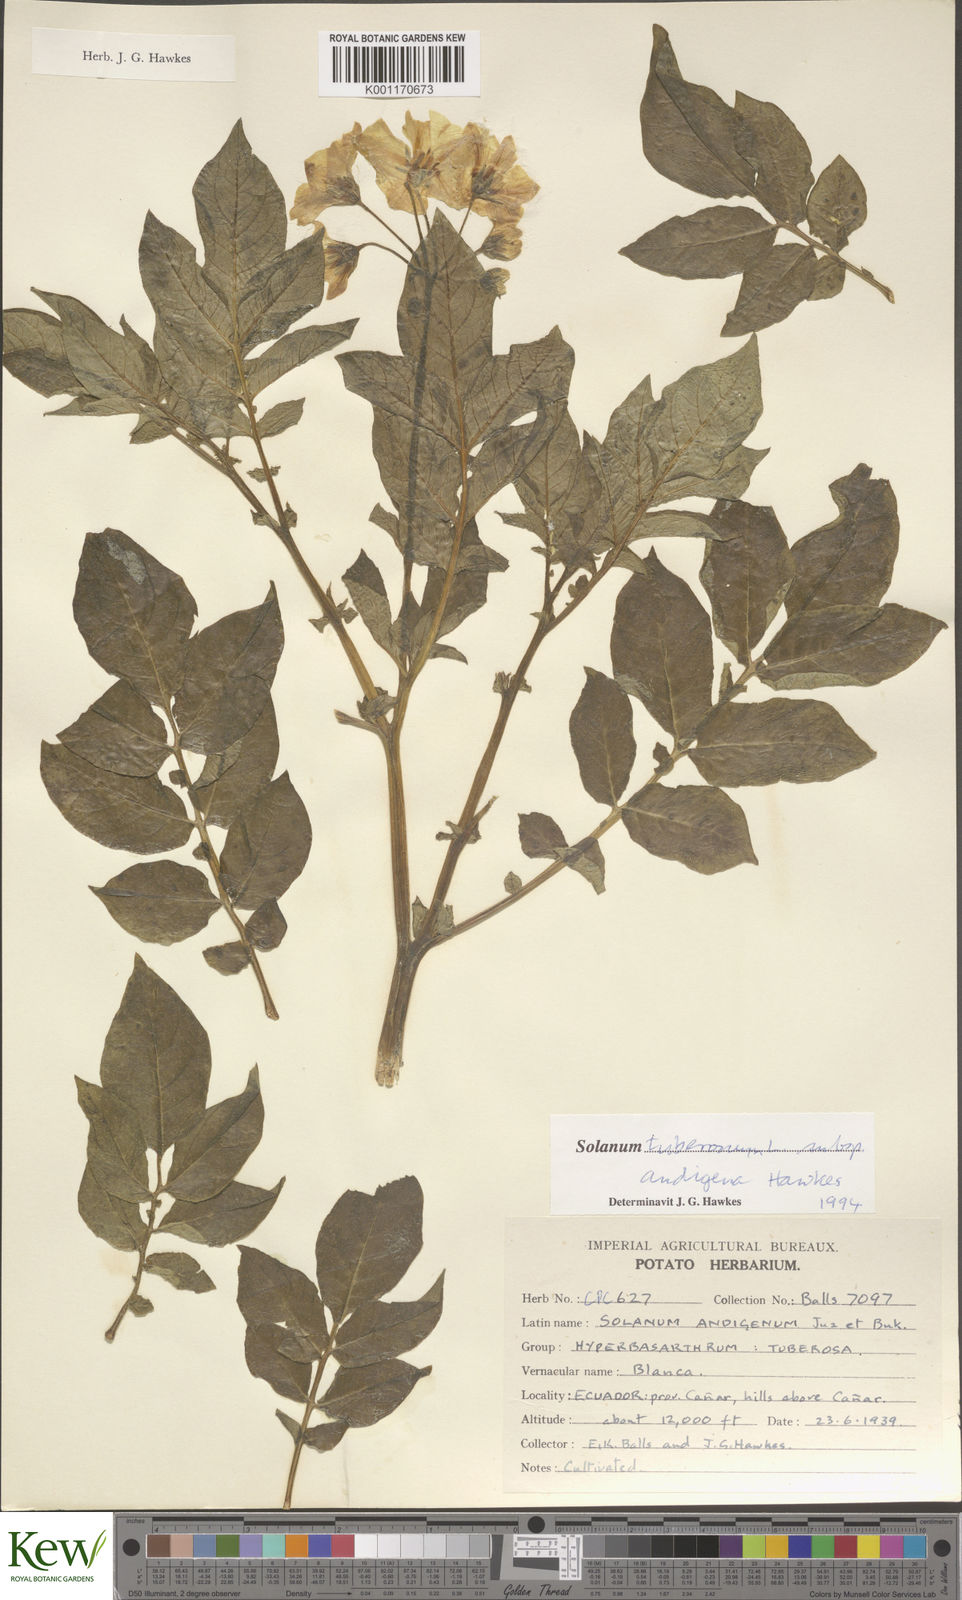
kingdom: Plantae
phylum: Tracheophyta
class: Magnoliopsida
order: Solanales
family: Solanaceae
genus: Solanum
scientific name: Solanum tuberosum
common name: Potato
